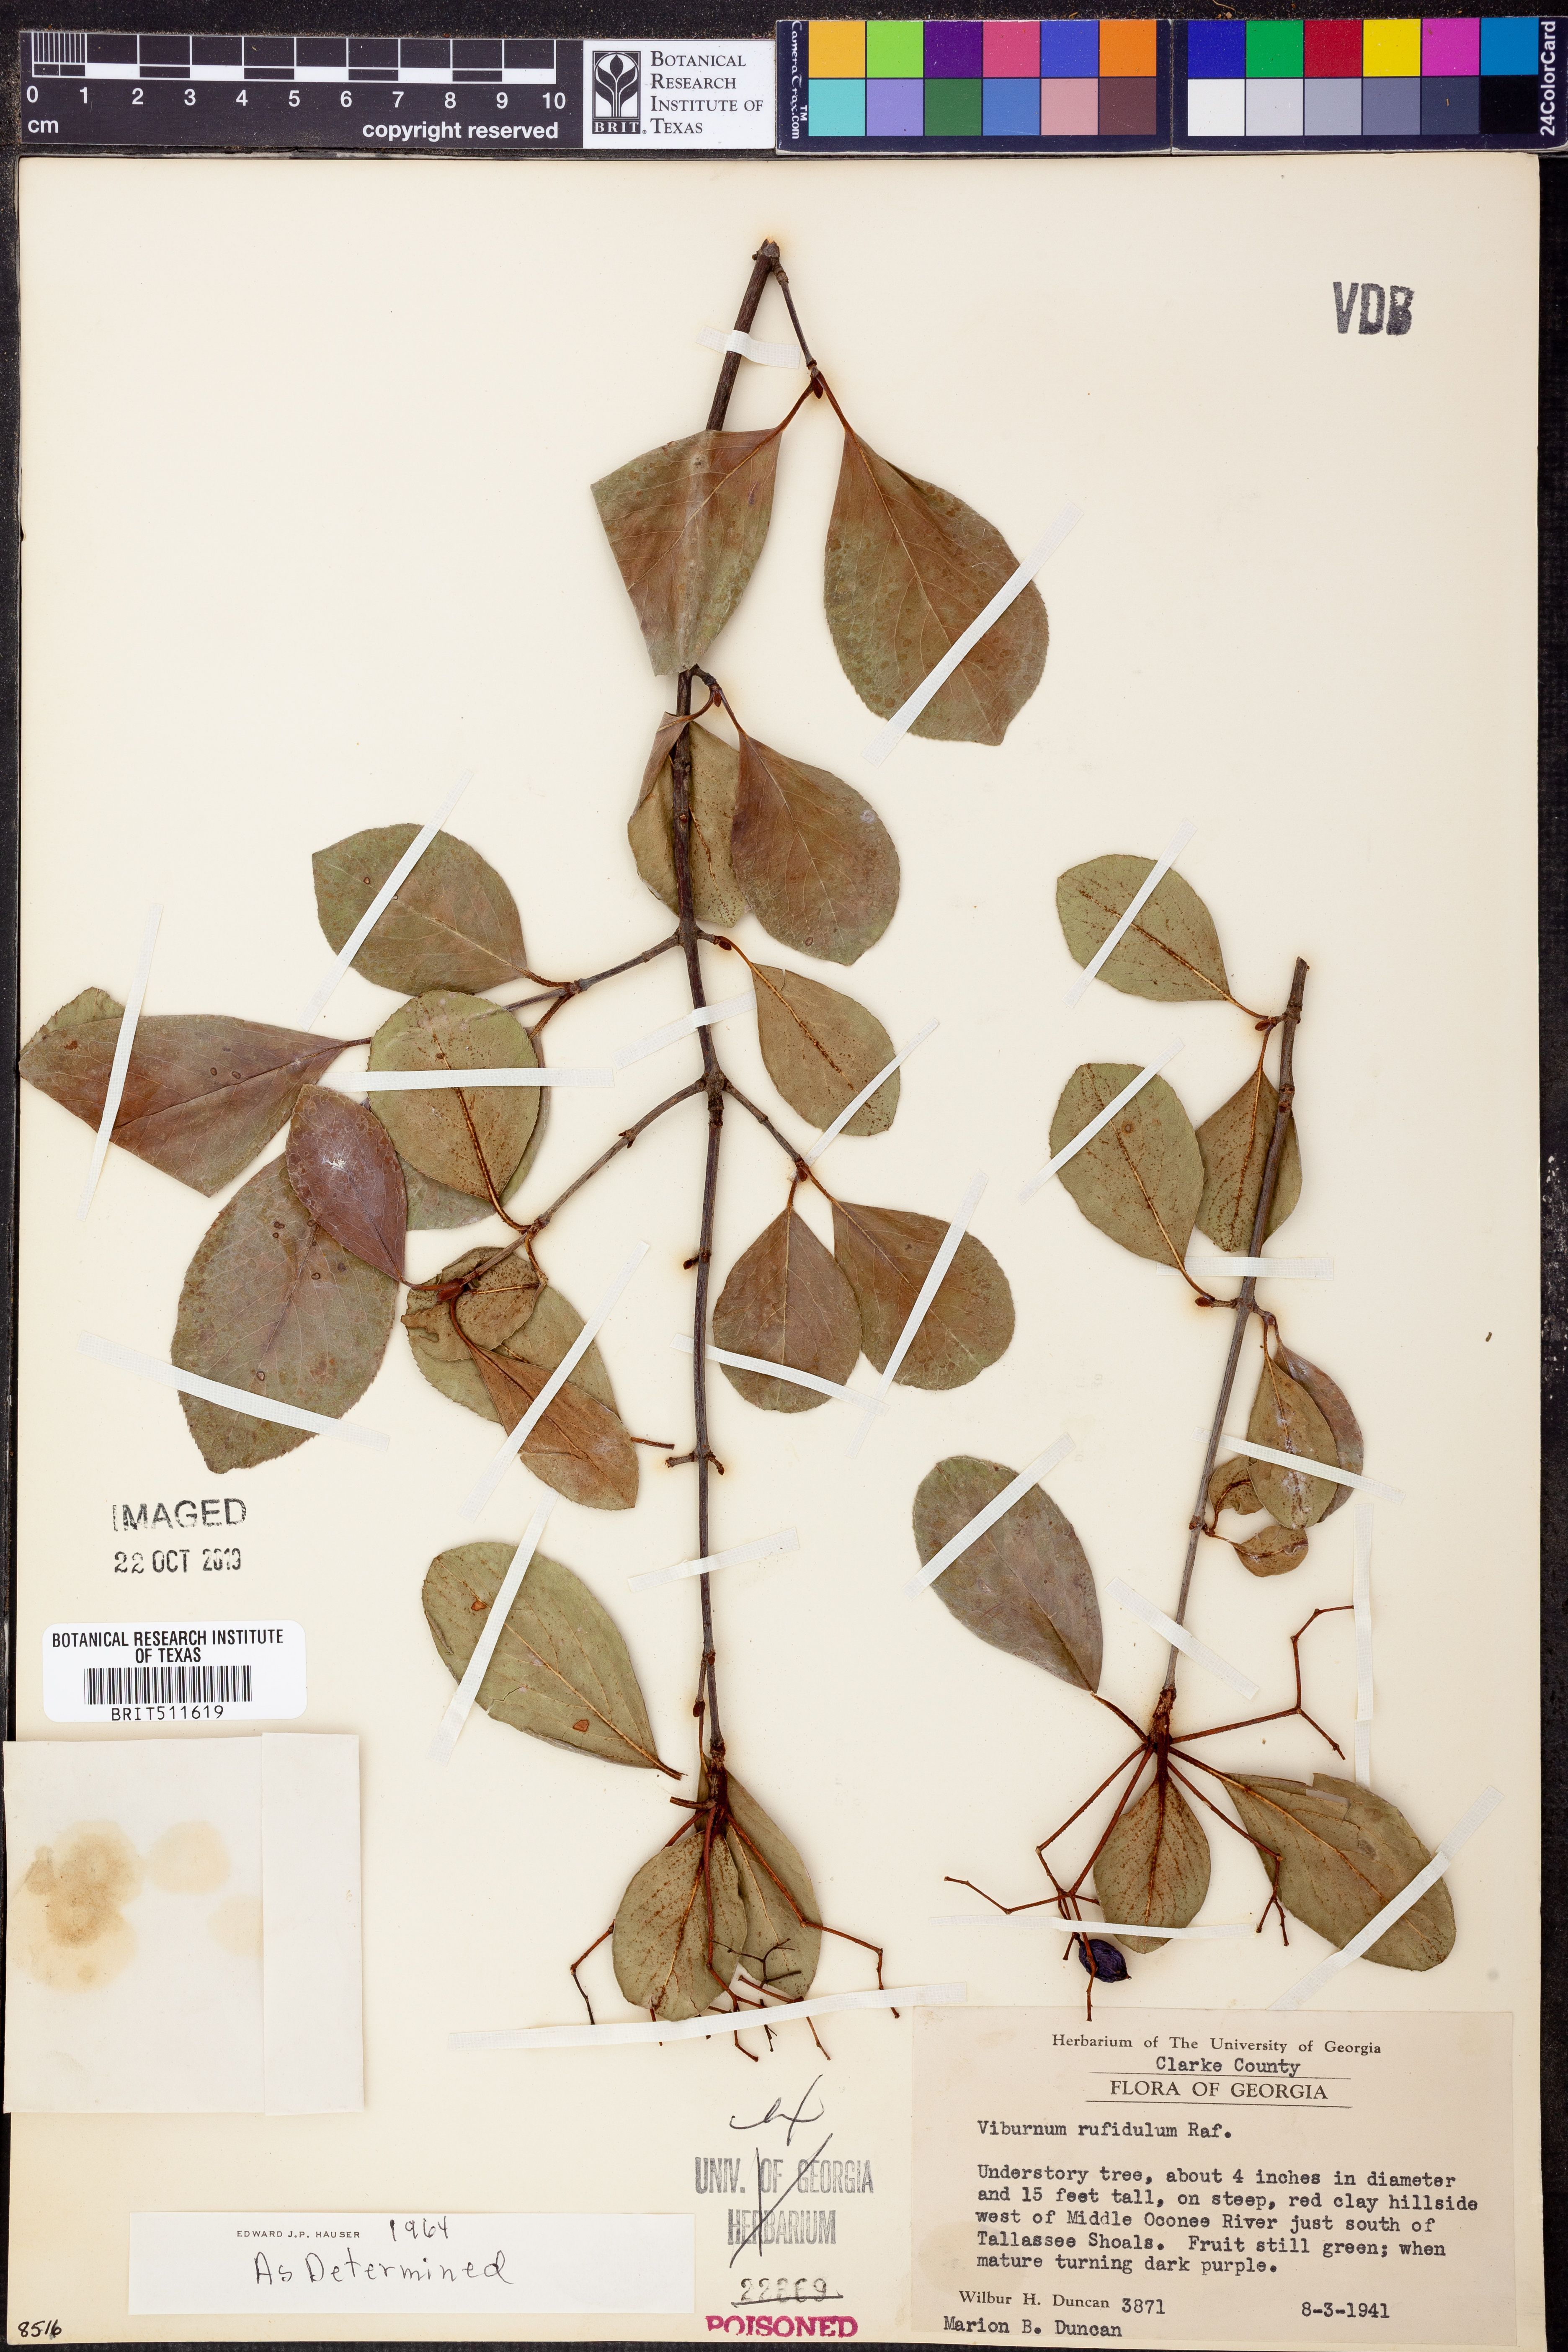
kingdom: Plantae
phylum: Tracheophyta
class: Magnoliopsida
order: Dipsacales
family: Viburnaceae
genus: Viburnum
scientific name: Viburnum rufidulum
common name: Blue haw
